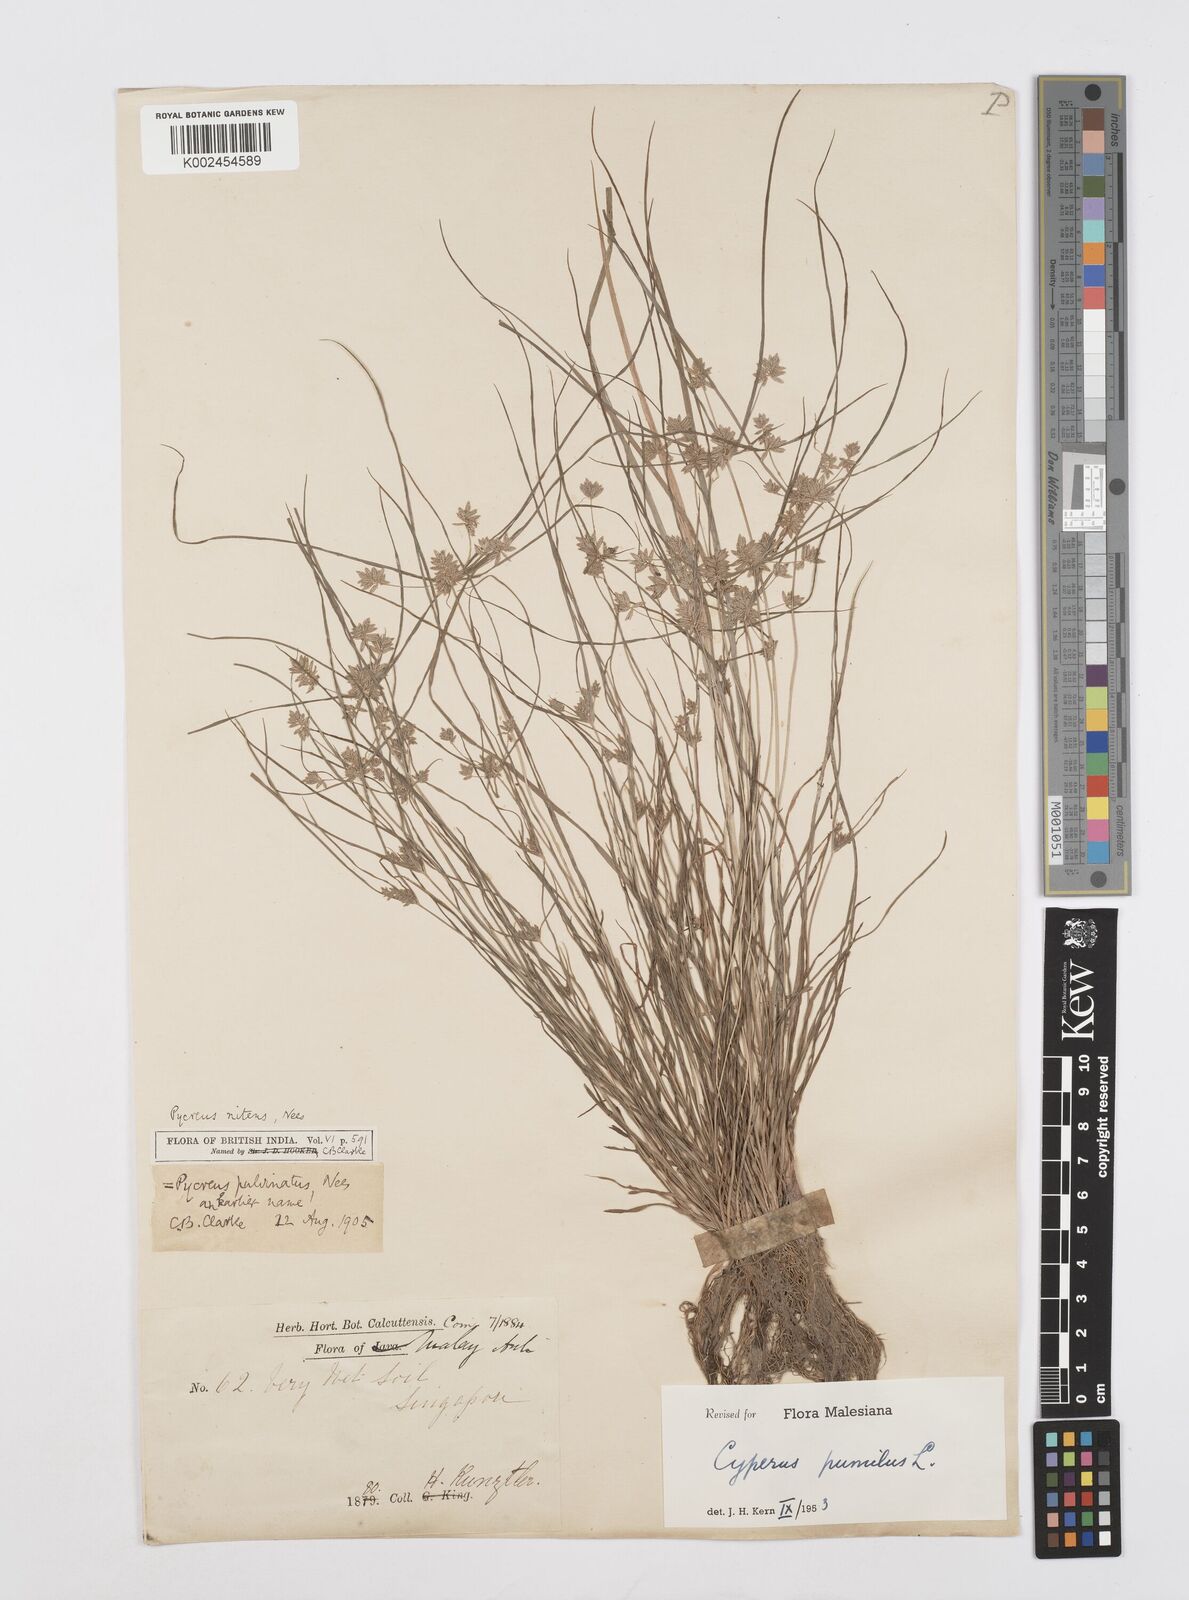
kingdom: Plantae
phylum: Tracheophyta
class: Liliopsida
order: Poales
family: Cyperaceae
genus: Cyperus
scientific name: Cyperus pumilus
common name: Low flatsedge
